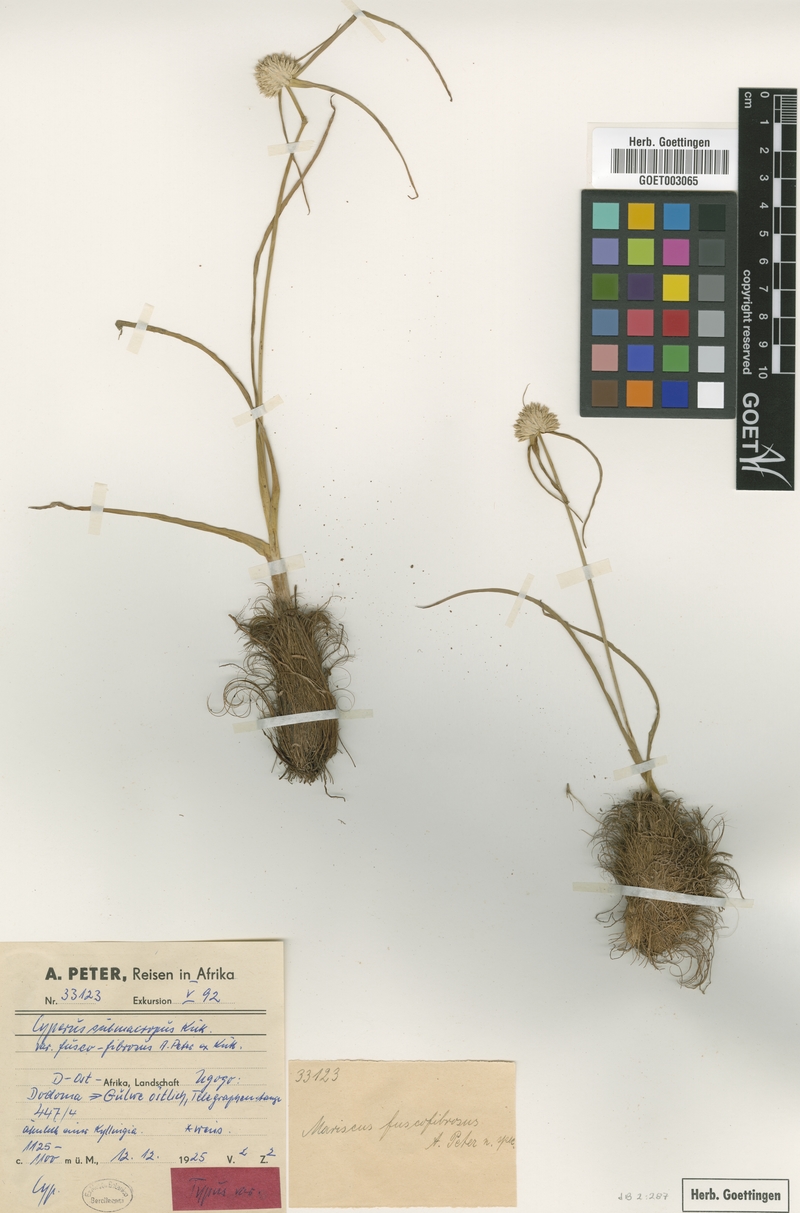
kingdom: Plantae
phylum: Tracheophyta
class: Liliopsida
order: Poales
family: Cyperaceae
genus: Cyperus
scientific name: Cyperus mollipes
